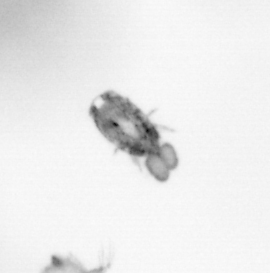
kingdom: Animalia
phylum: Arthropoda
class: Copepoda
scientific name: Copepoda
